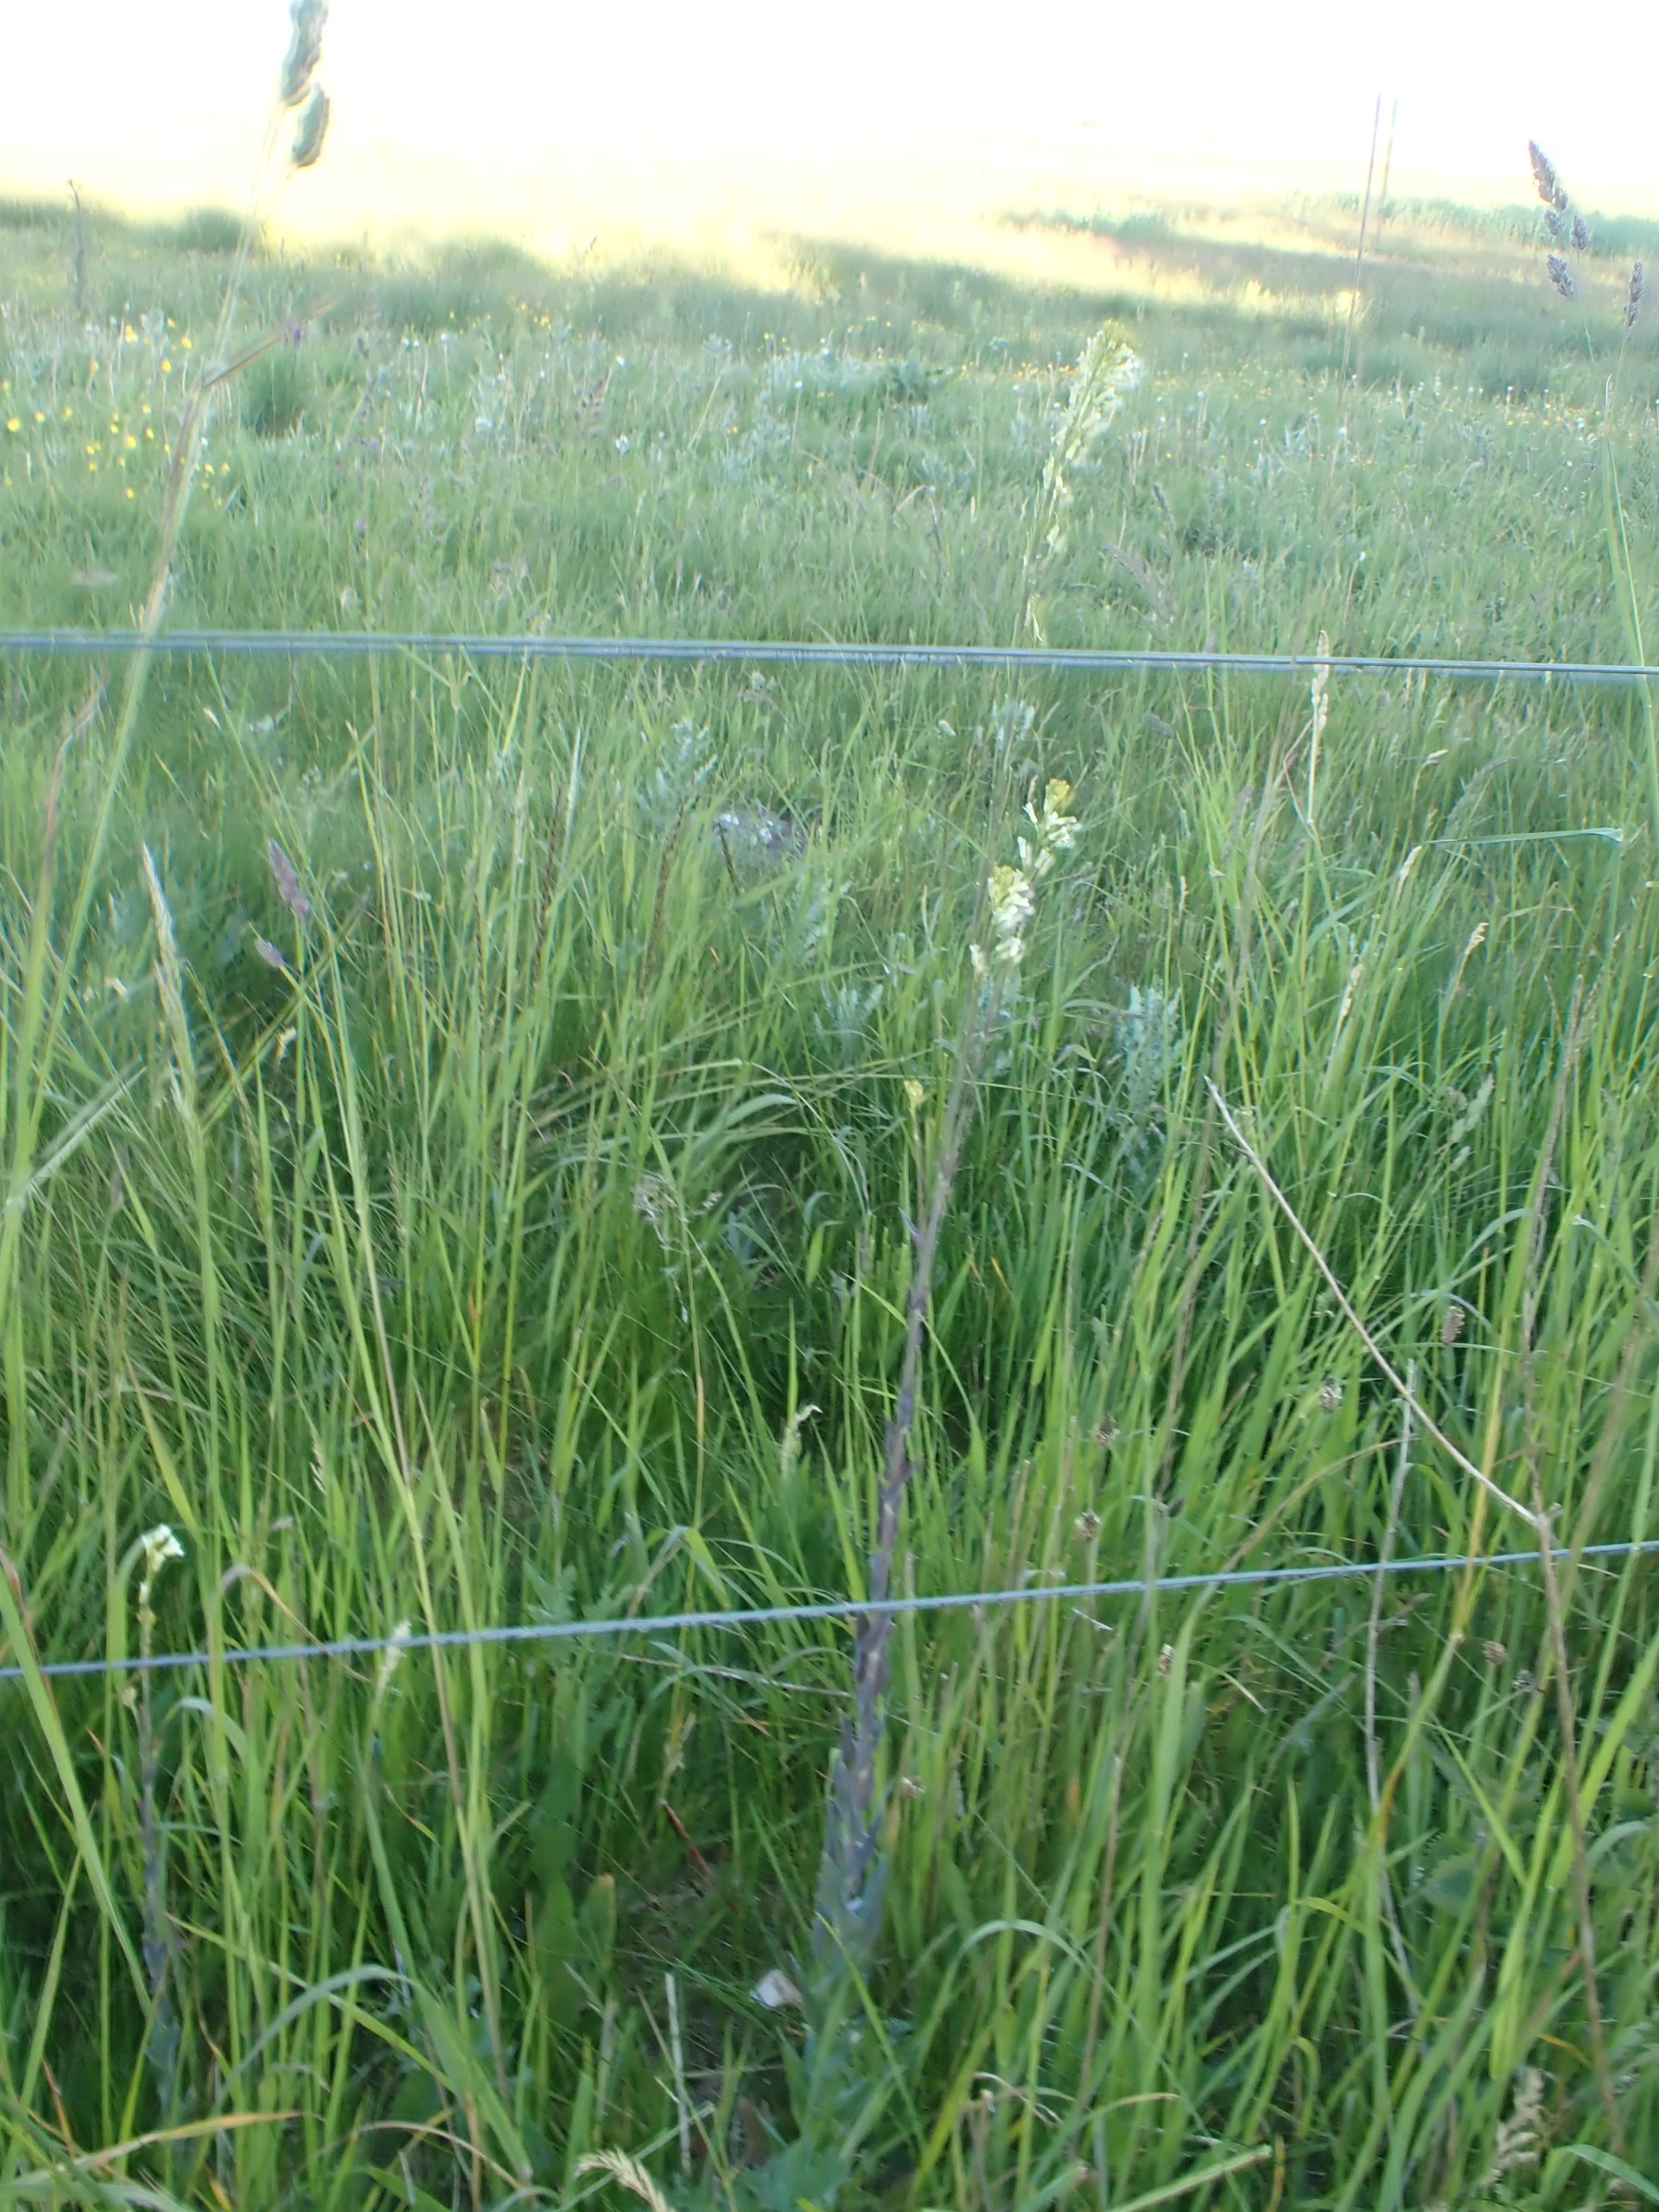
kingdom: Plantae
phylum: Tracheophyta
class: Magnoliopsida
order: Brassicales
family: Brassicaceae
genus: Turritis
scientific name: Turritis glabra
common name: Tårnurt
